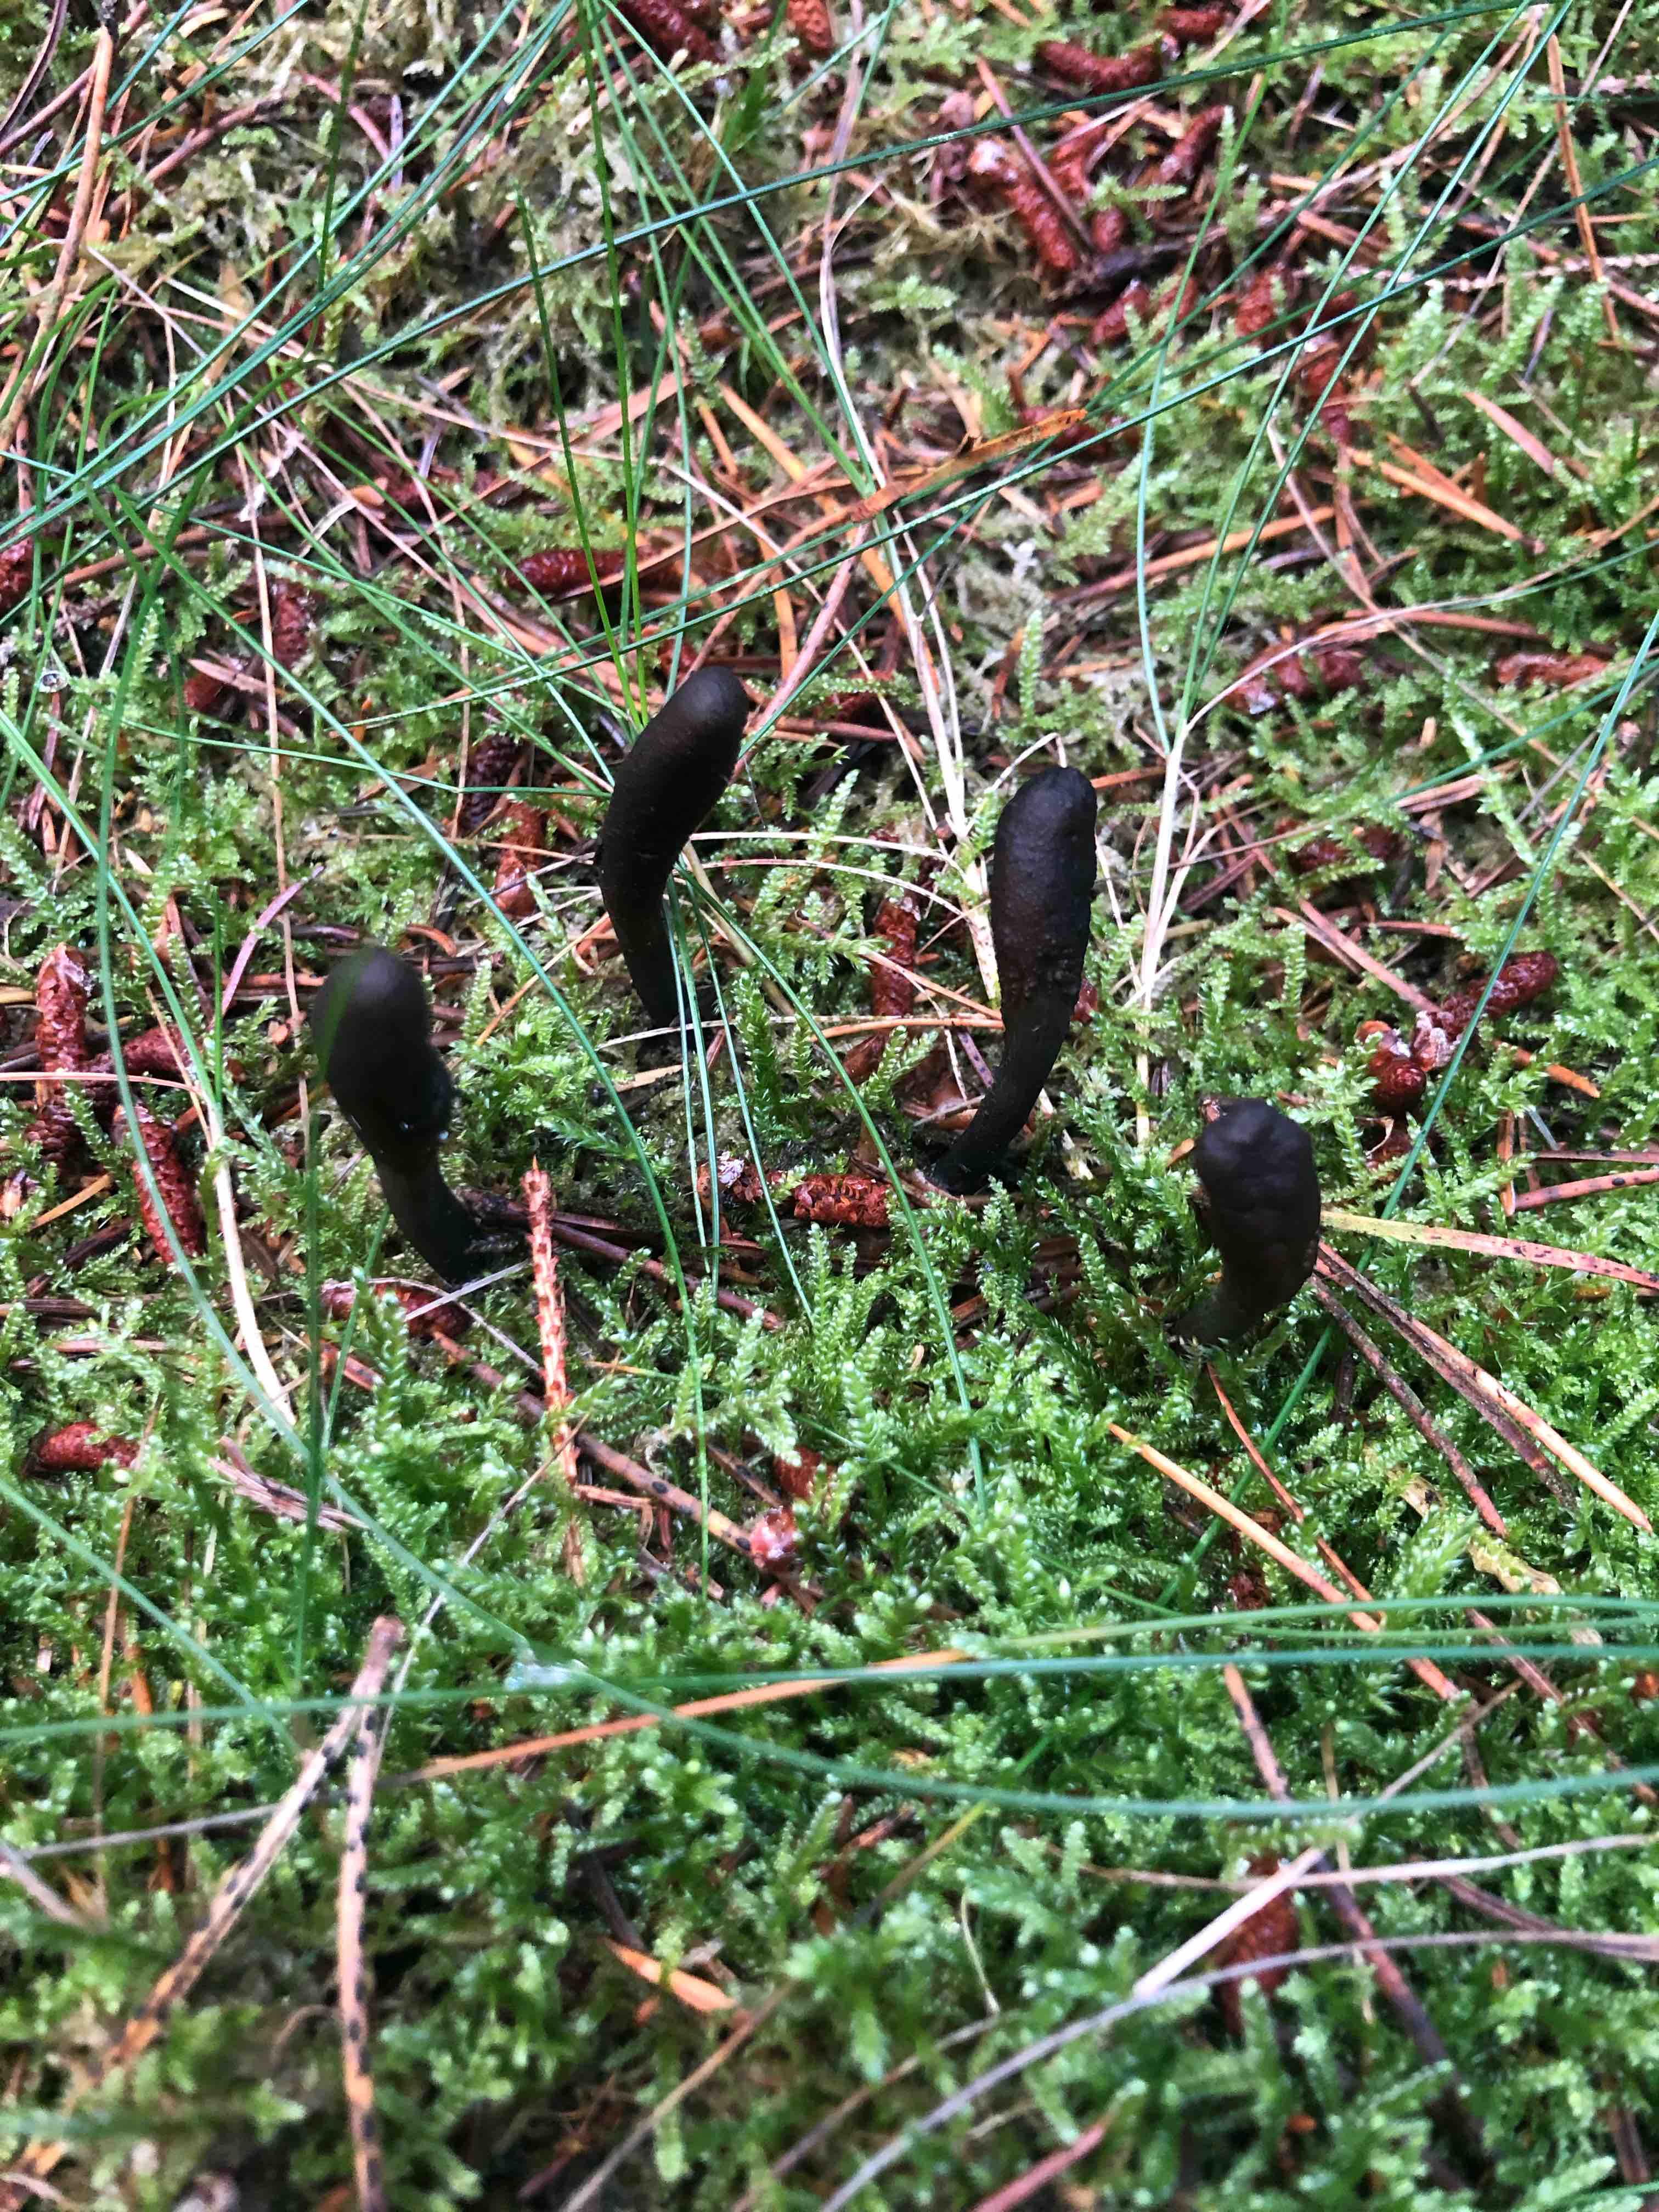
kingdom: Fungi
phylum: Ascomycota
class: Sordariomycetes
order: Hypocreales
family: Ophiocordycipitaceae
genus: Tolypocladium
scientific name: Tolypocladium ophioglossoides
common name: slank snyltekølle
